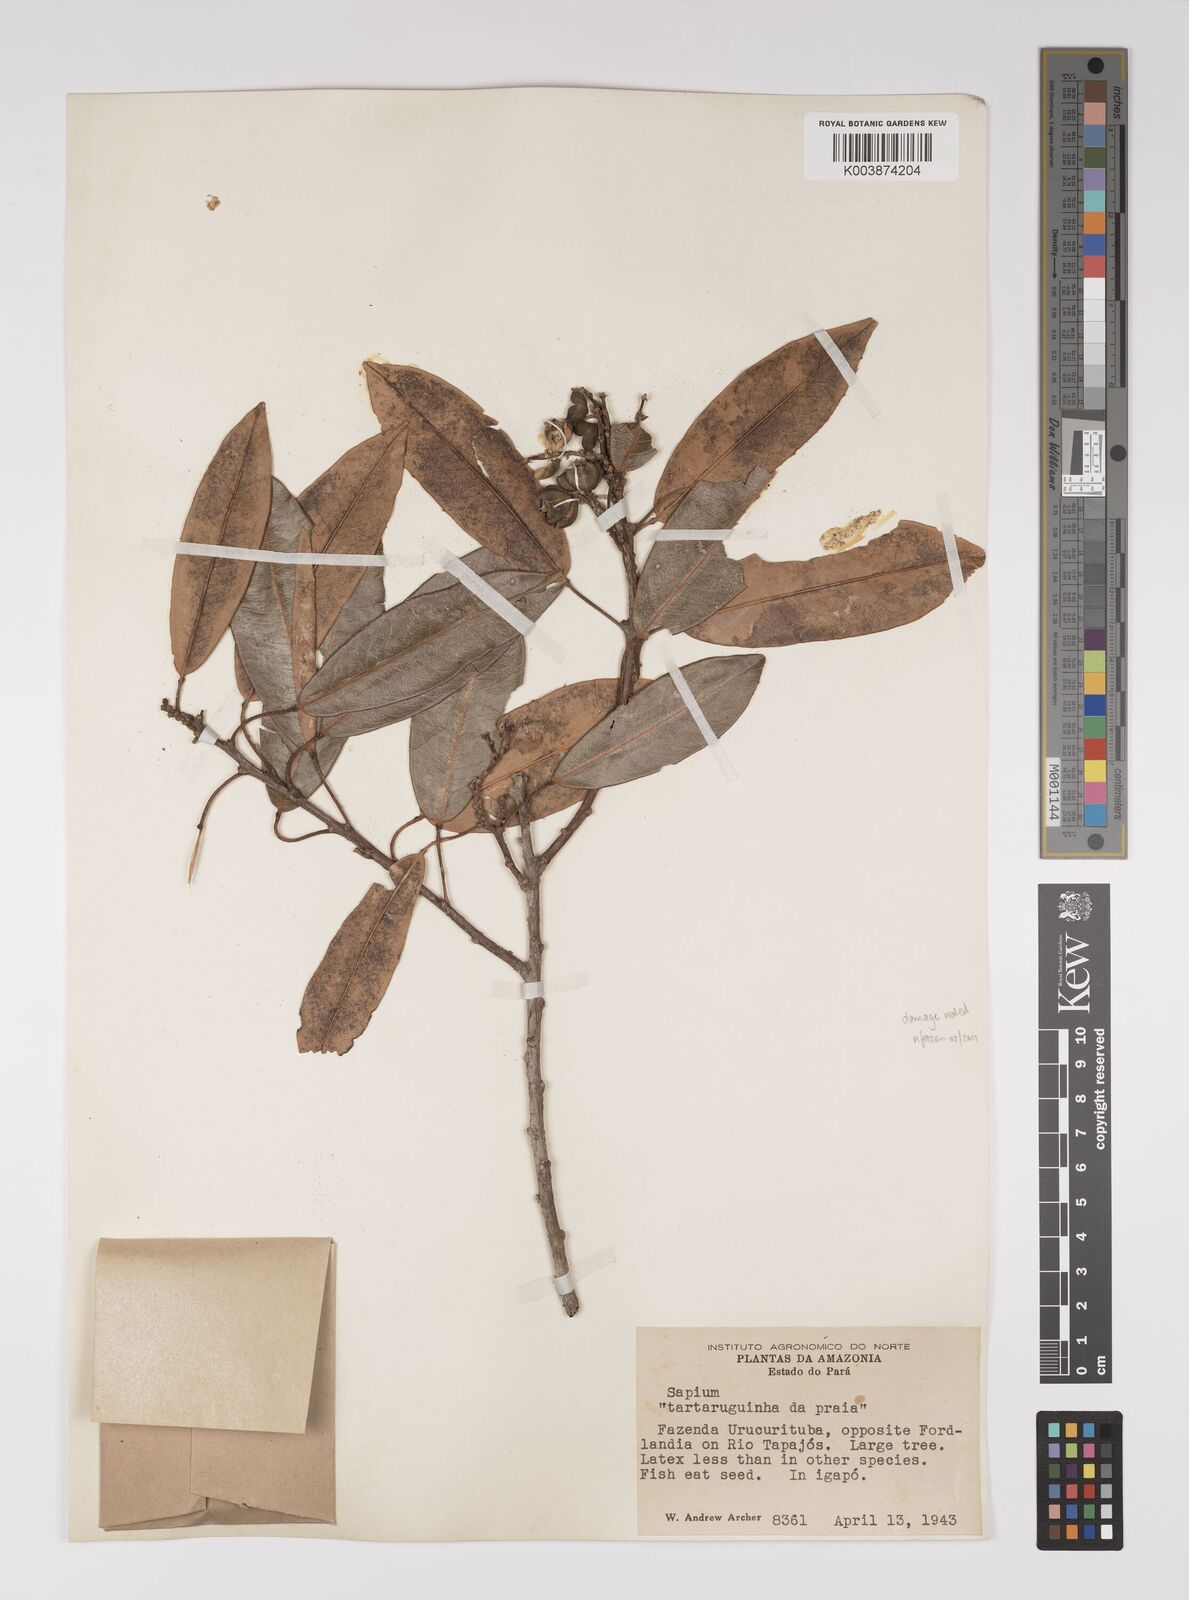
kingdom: Plantae
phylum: Tracheophyta
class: Magnoliopsida
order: Malpighiales
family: Euphorbiaceae
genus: Sapium
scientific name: Sapium
